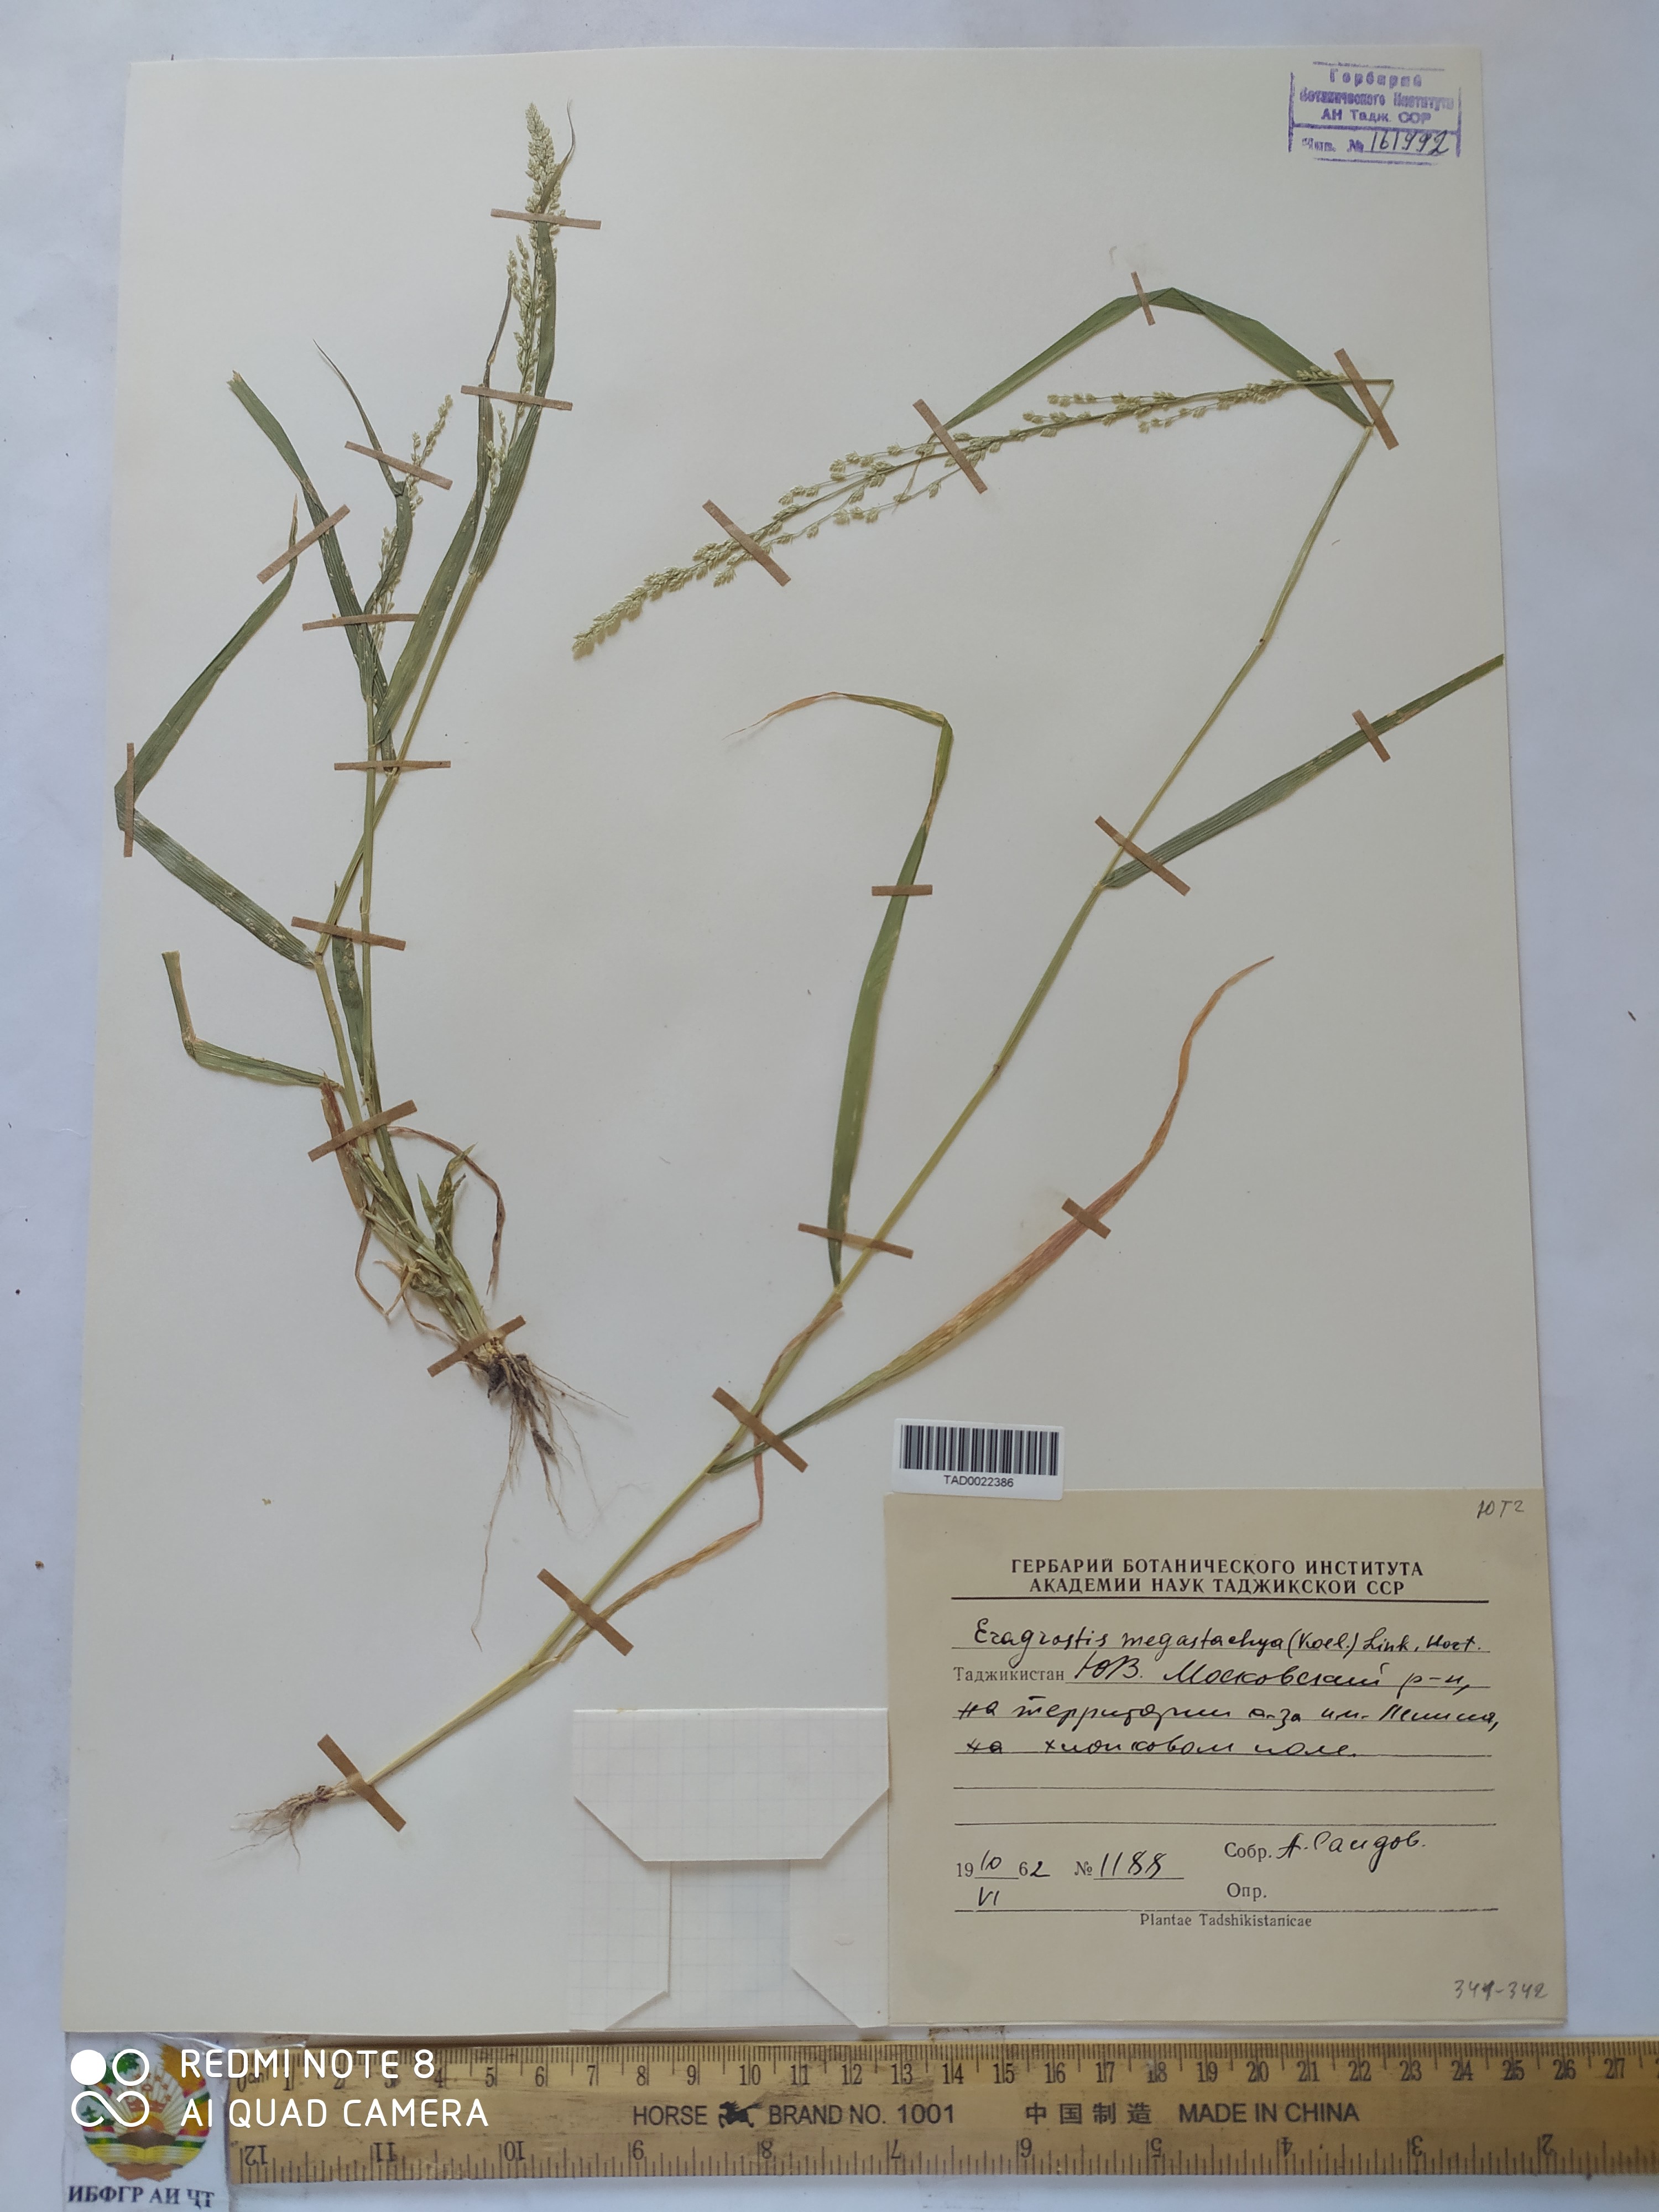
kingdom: Plantae
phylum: Tracheophyta
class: Liliopsida
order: Poales
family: Poaceae
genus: Eragrostis
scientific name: Eragrostis cilianensis
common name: Stinkgrass
